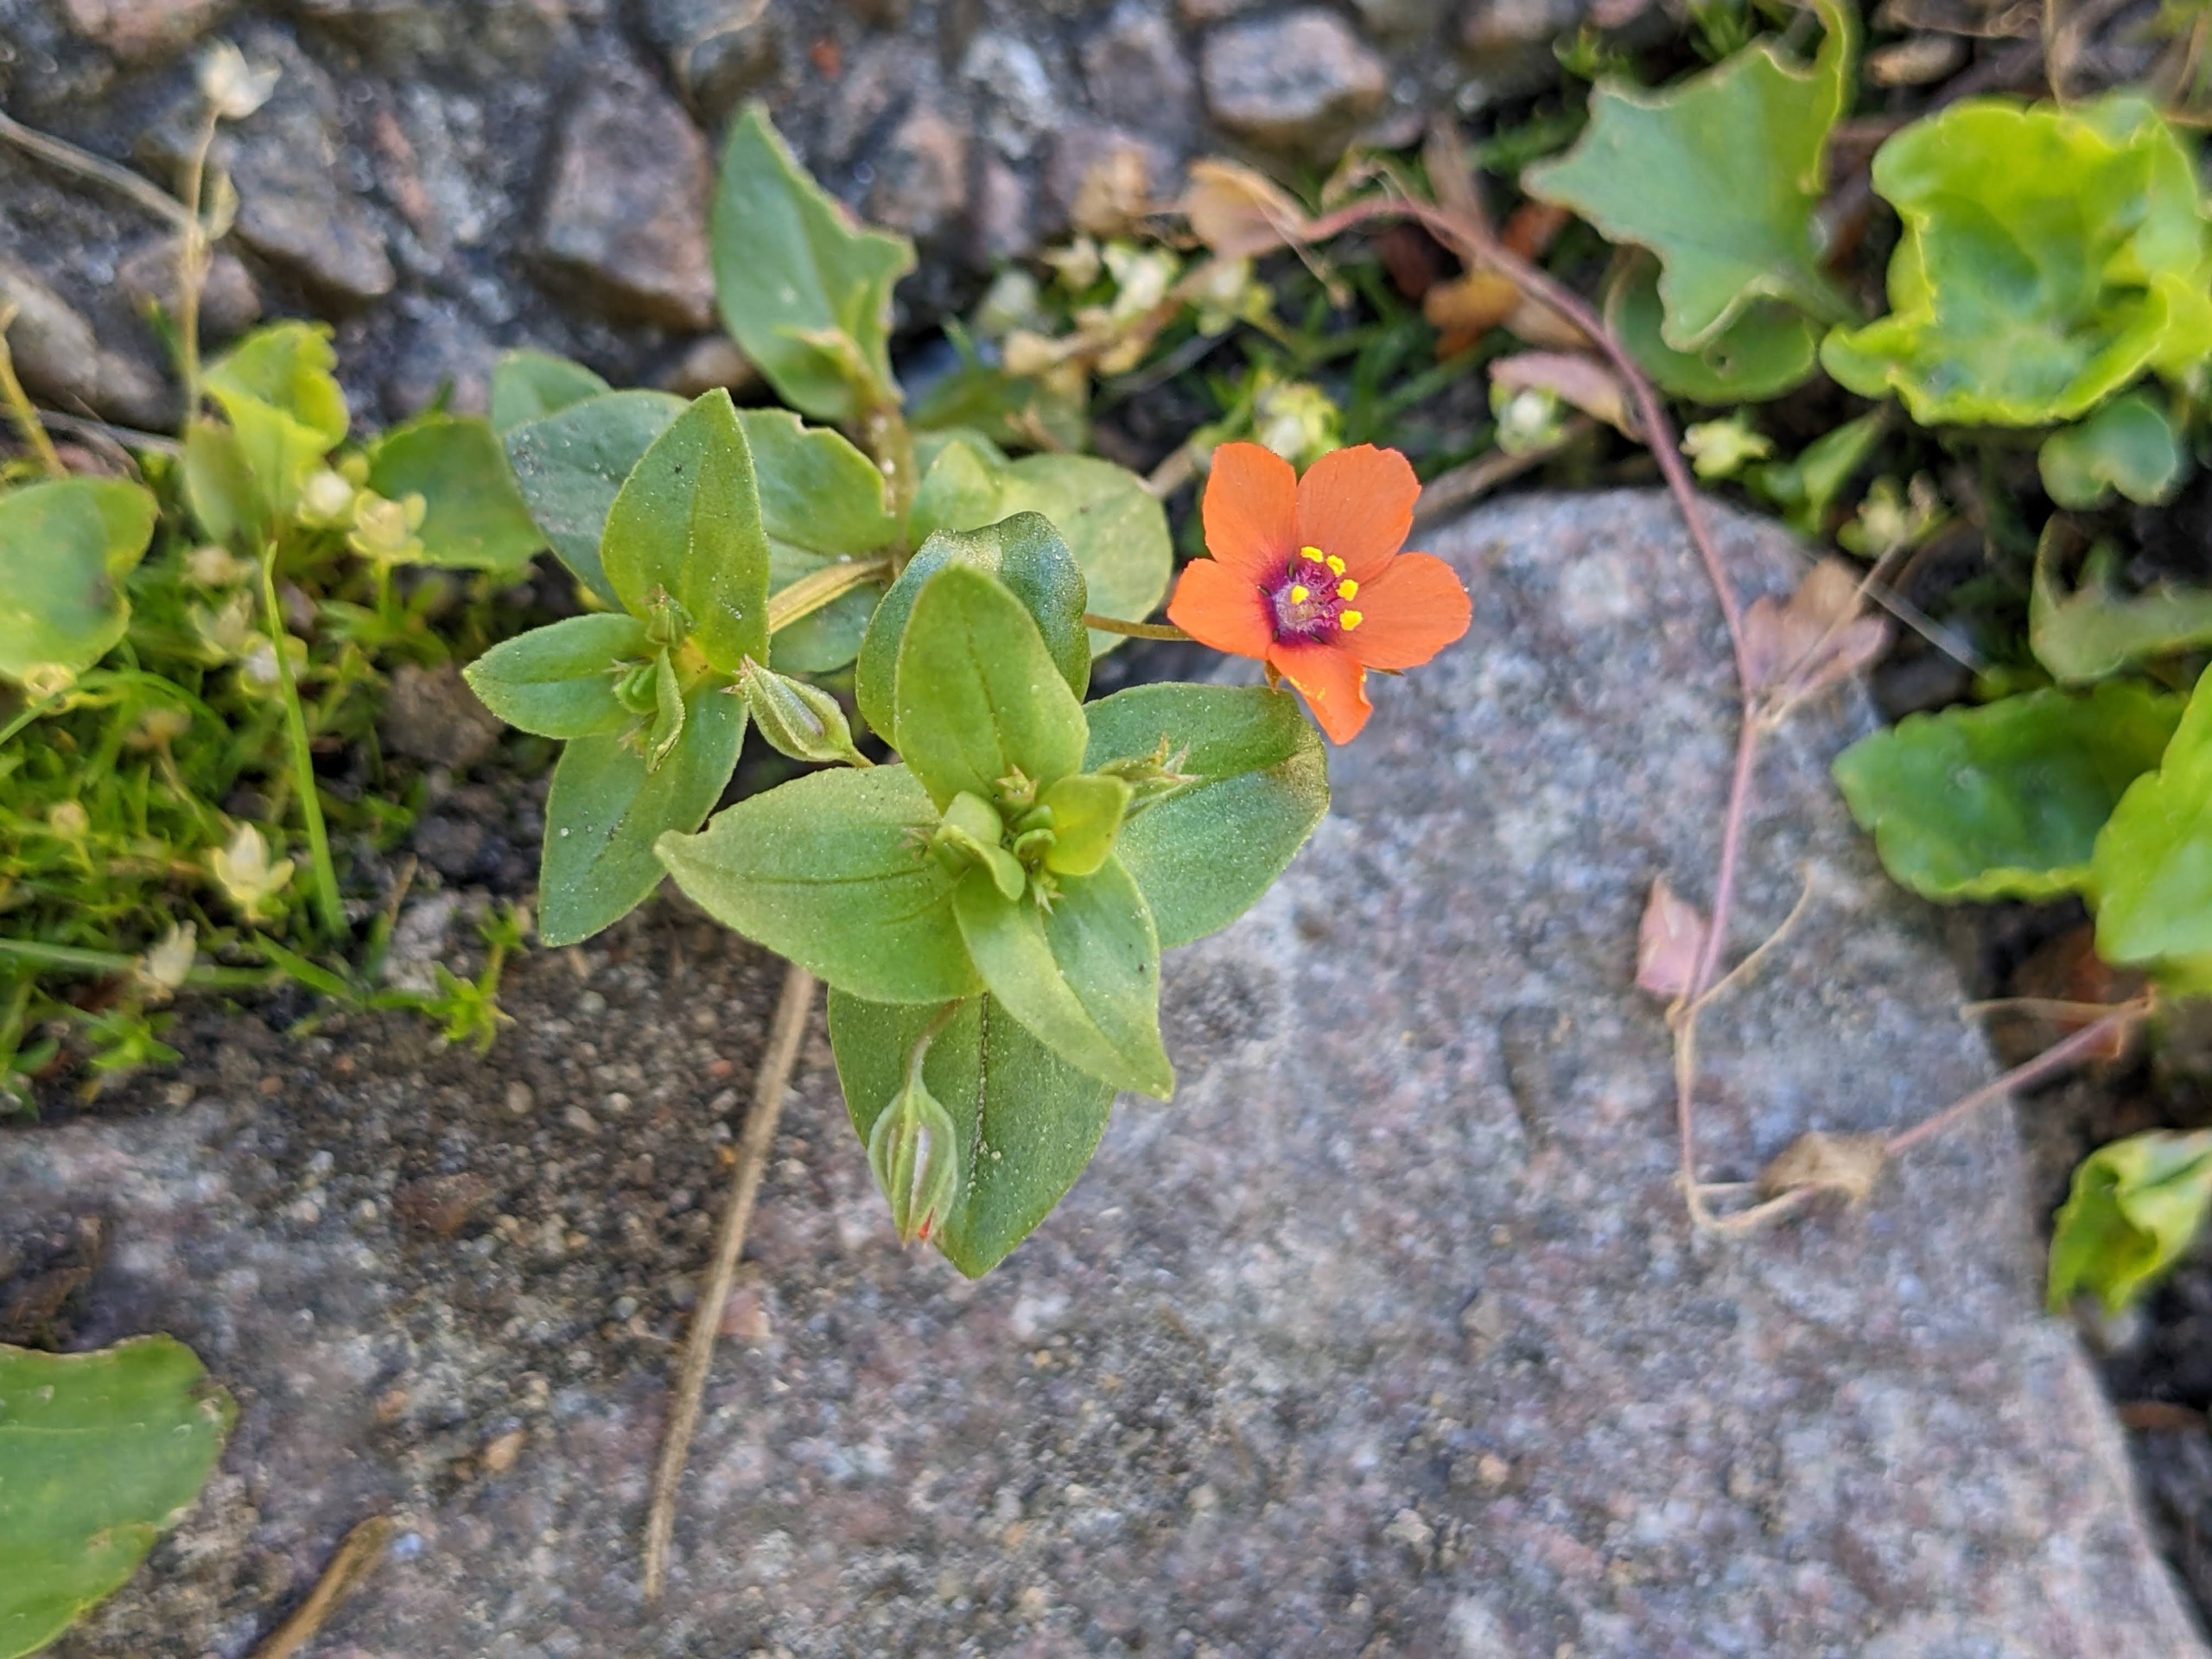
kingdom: Plantae
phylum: Tracheophyta
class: Magnoliopsida
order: Ericales
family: Primulaceae
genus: Lysimachia
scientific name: Lysimachia arvensis
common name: Rød arve
